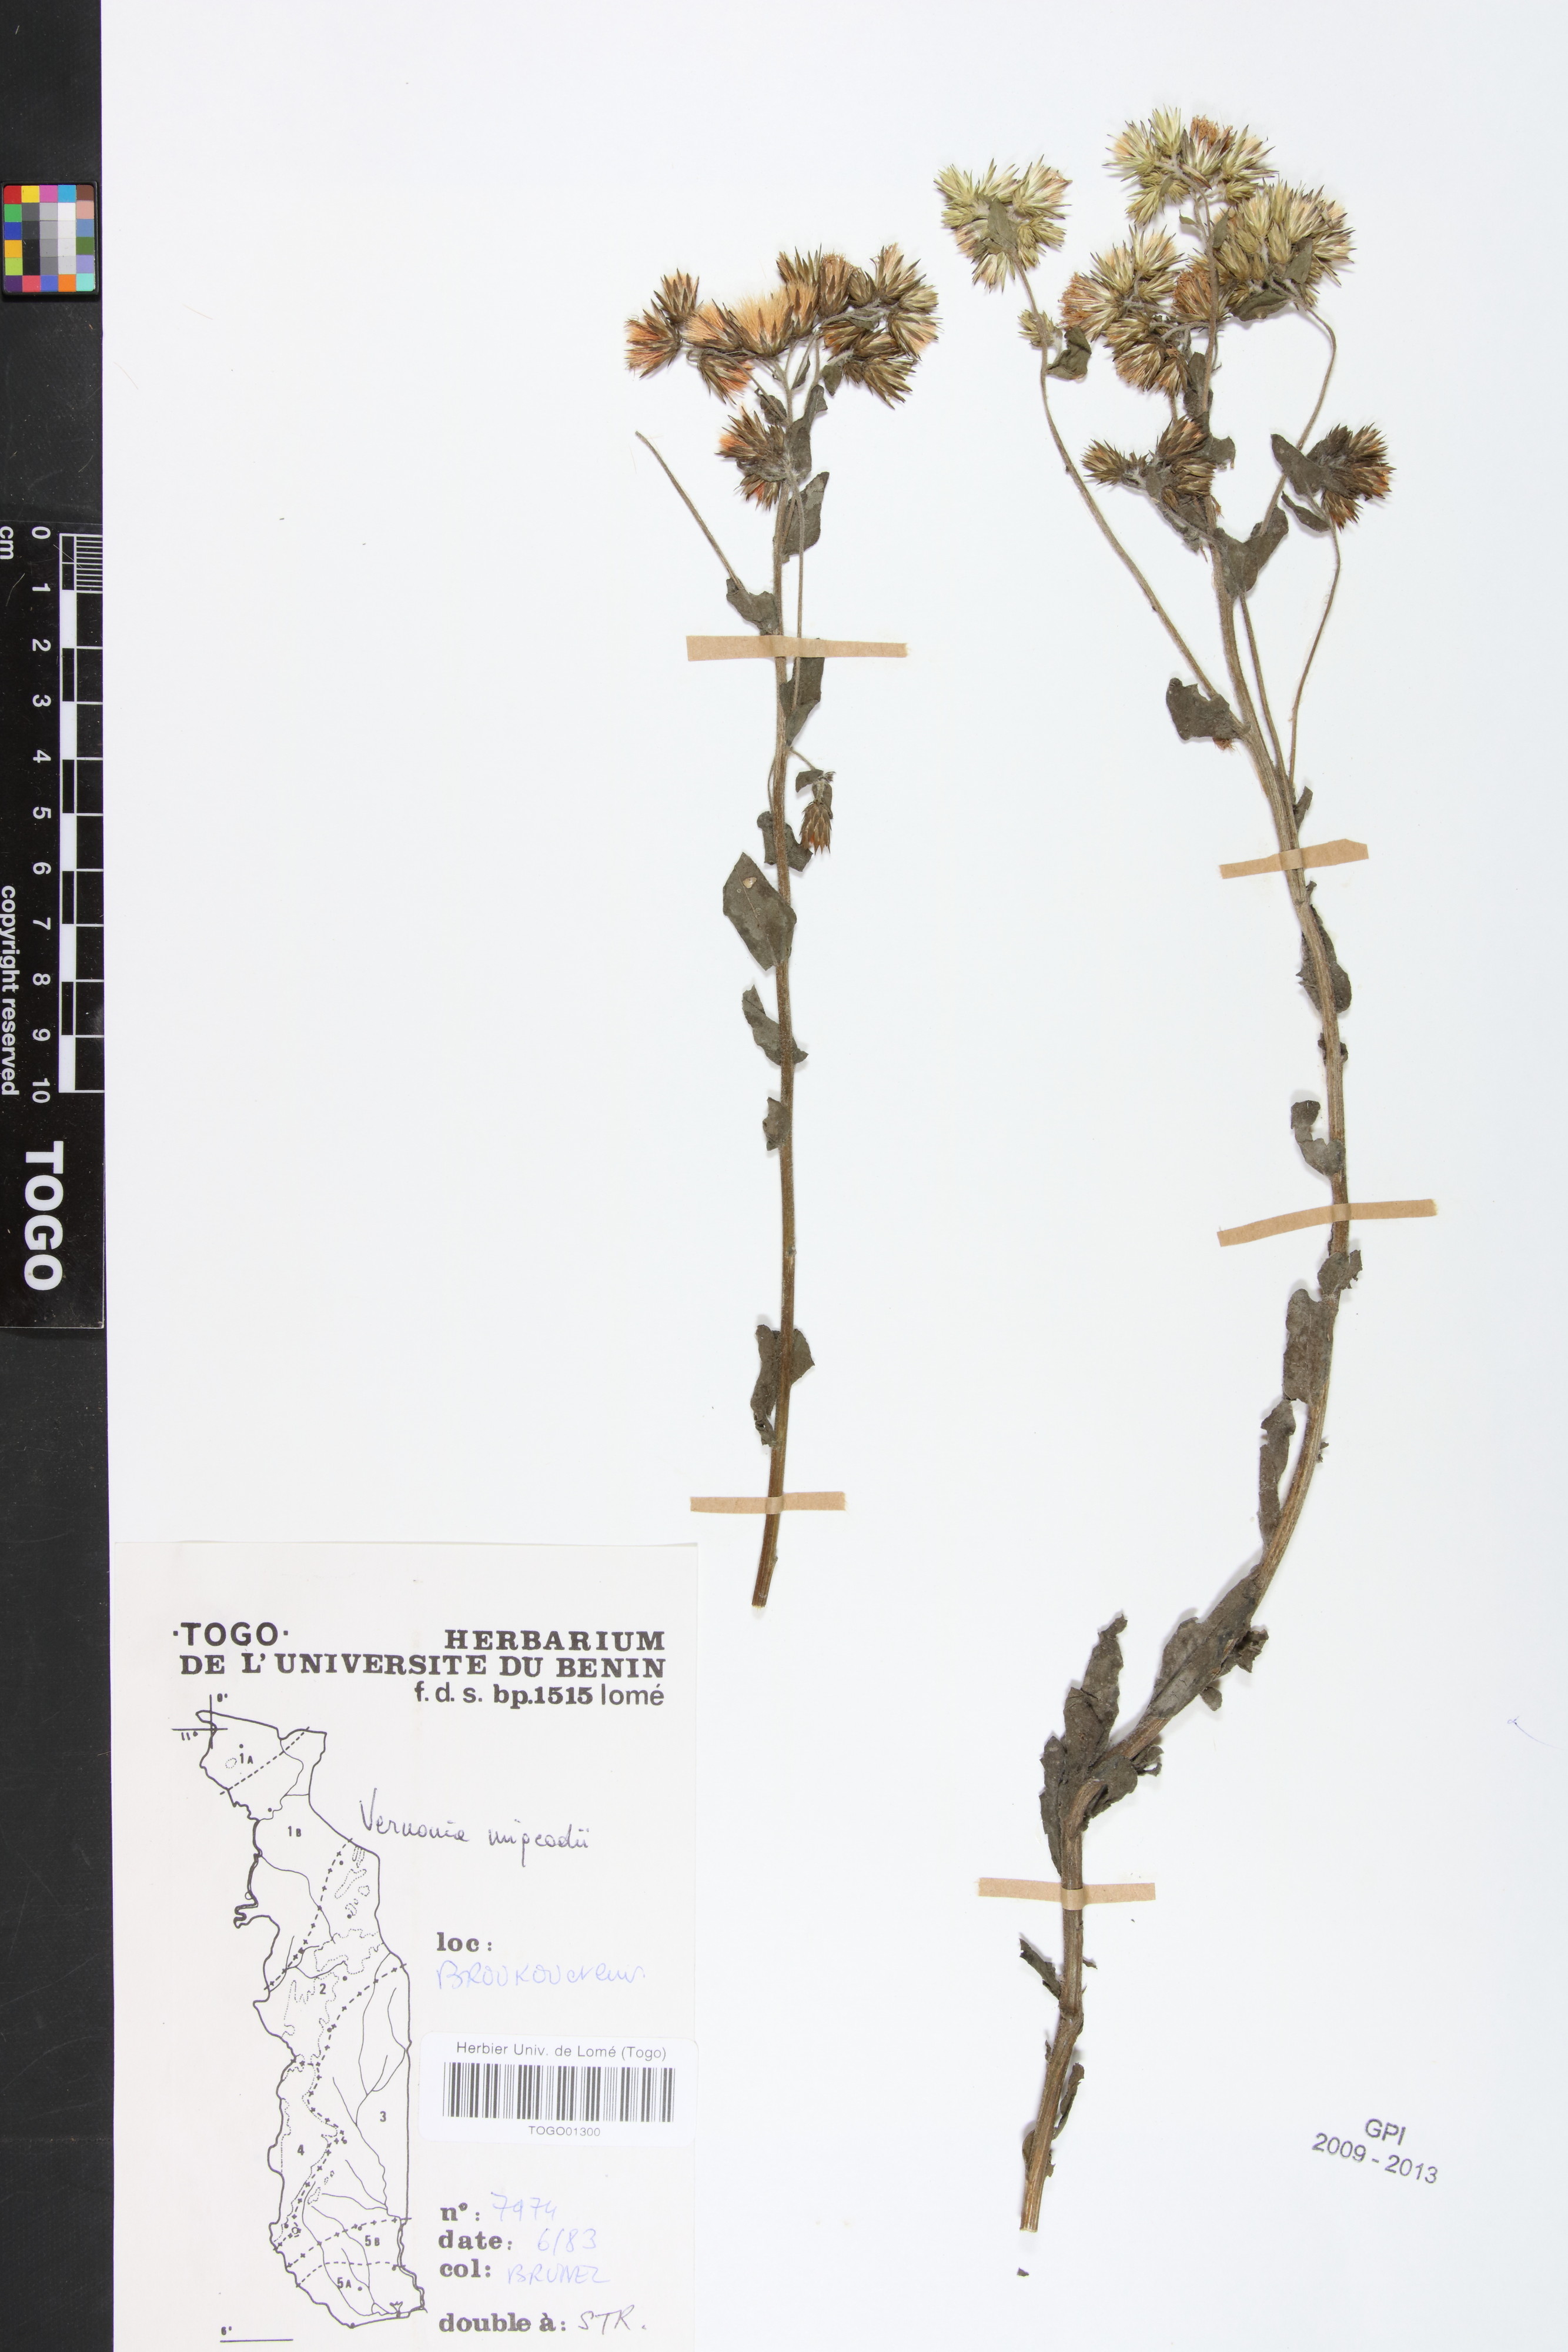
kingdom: Plantae
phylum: Tracheophyta
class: Magnoliopsida
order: Asterales
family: Asteraceae
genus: Vernoniastrum
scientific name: Vernoniastrum migeodii
